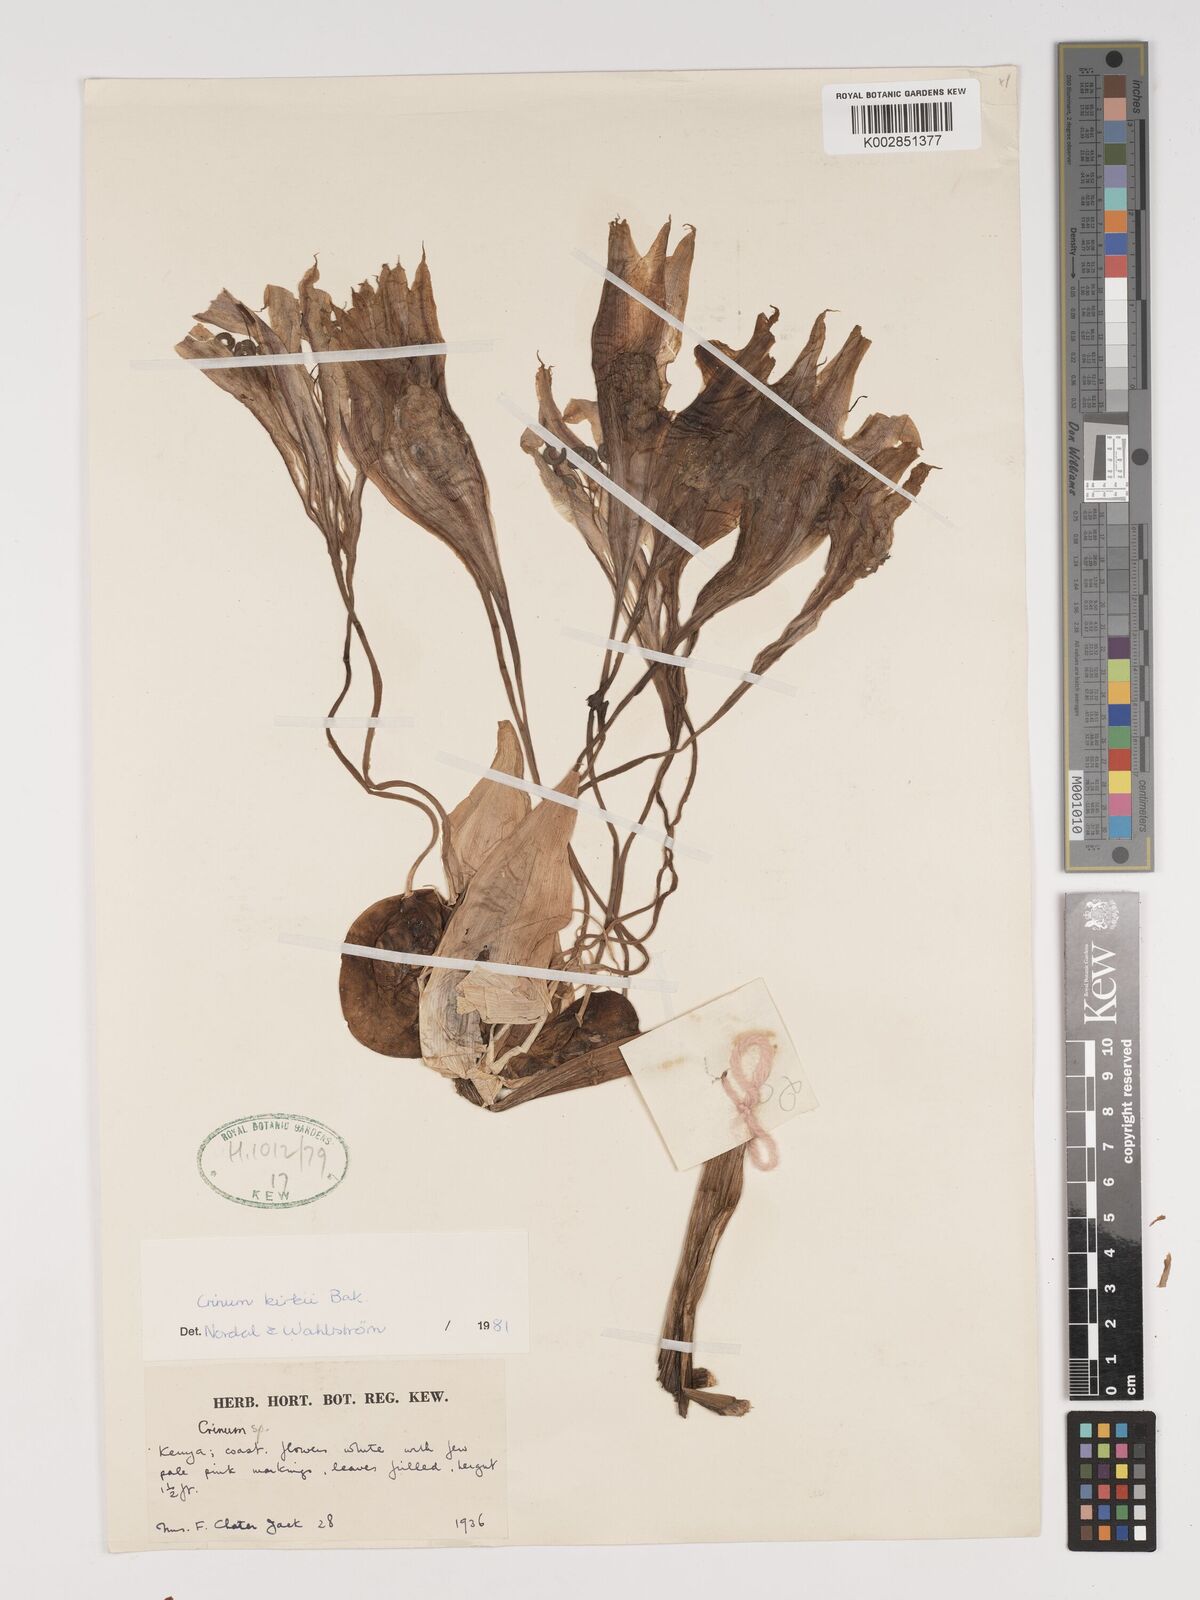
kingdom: Plantae
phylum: Tracheophyta
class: Liliopsida
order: Asparagales
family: Amaryllidaceae
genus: Crinum
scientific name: Crinum kirkii
